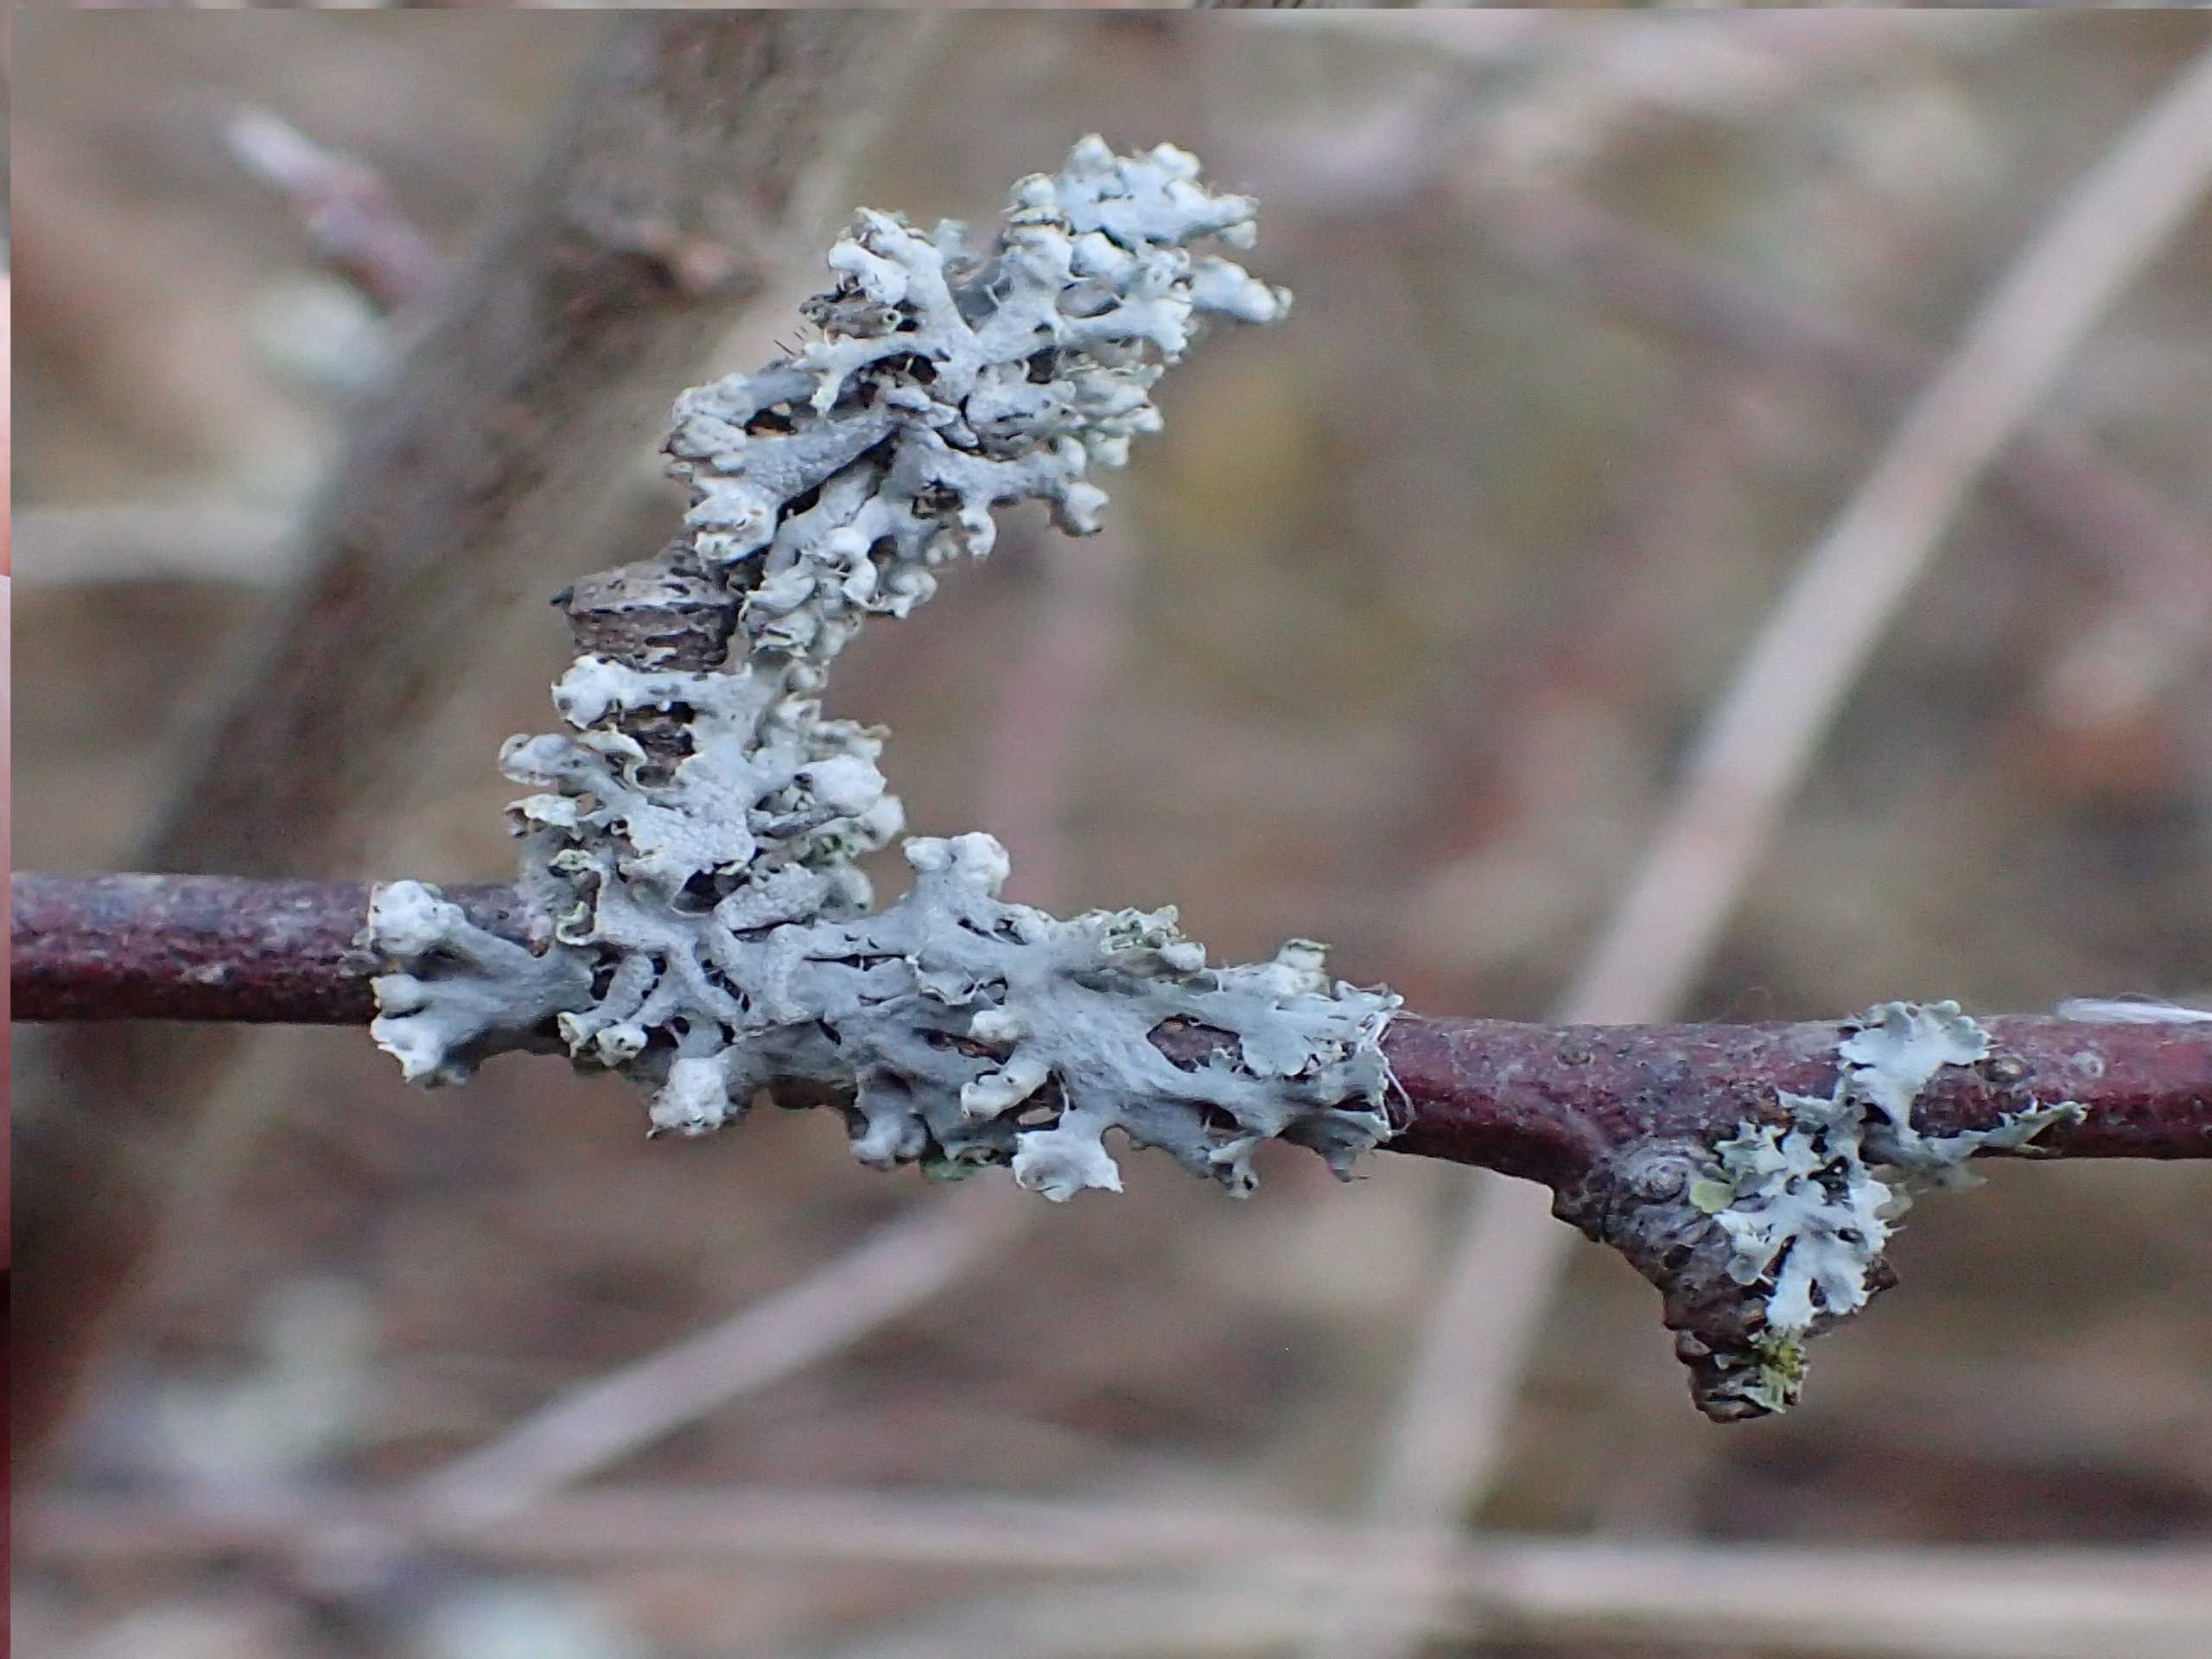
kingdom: Fungi
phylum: Ascomycota
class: Lecanoromycetes
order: Caliciales
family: Physciaceae
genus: Physcia
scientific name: Physcia adscendens
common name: Hætte-rosetlav
